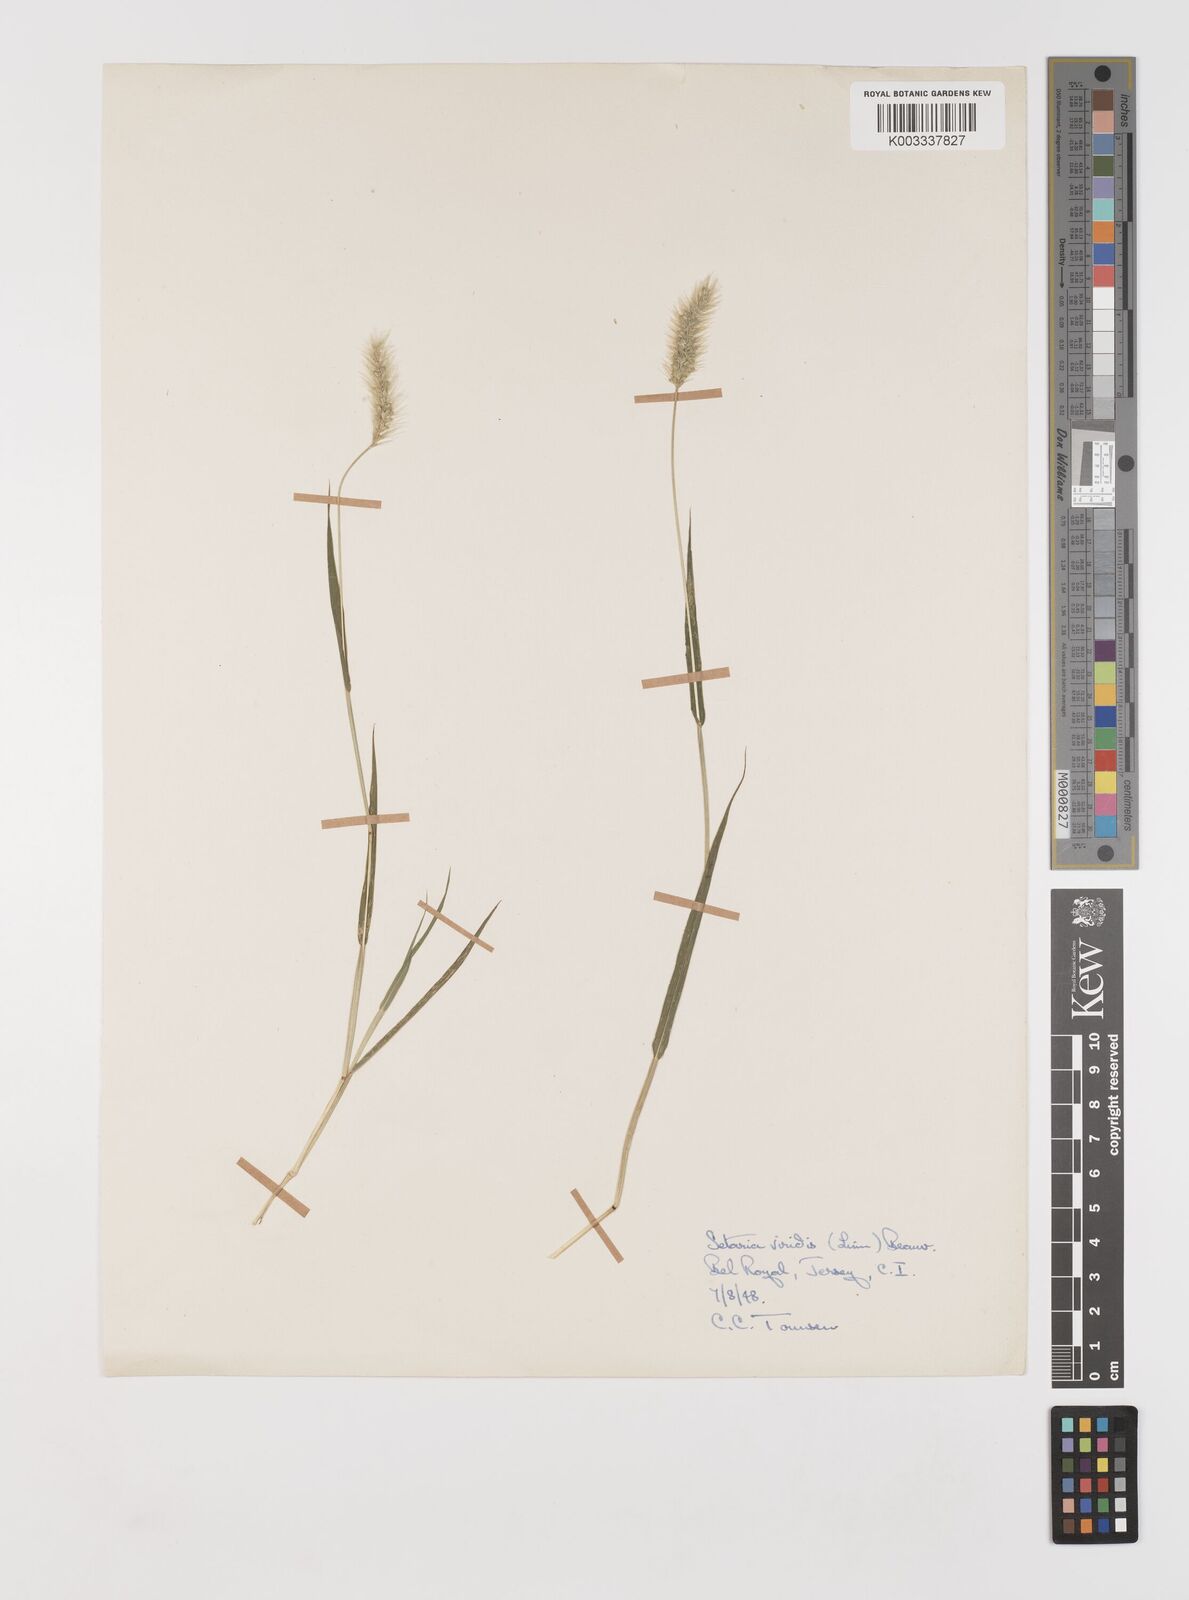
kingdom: Plantae
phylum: Tracheophyta
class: Liliopsida
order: Poales
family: Poaceae
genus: Setaria
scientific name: Setaria viridis
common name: Green bristlegrass
